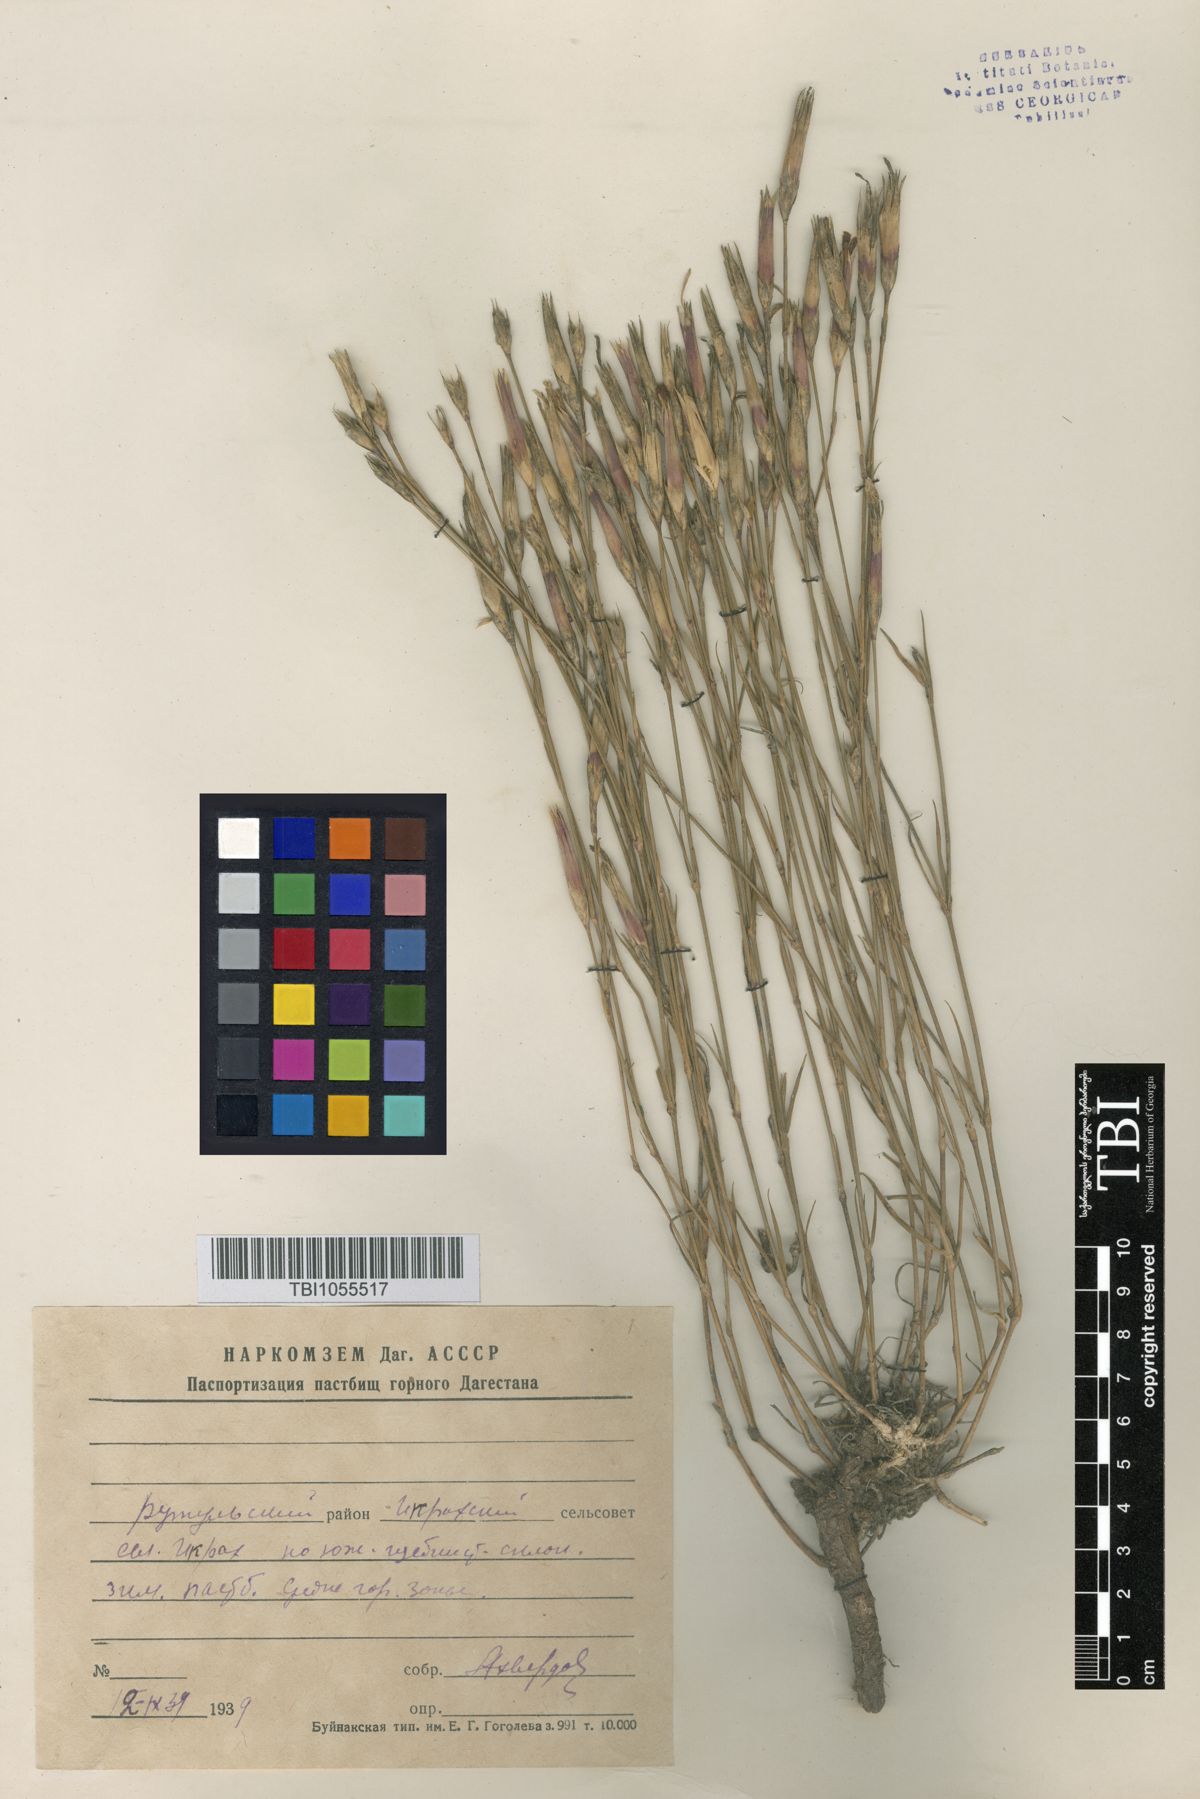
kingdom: Plantae
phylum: Tracheophyta
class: Magnoliopsida
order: Caryophyllales
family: Caryophyllaceae
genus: Dianthus
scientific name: Dianthus daghestanicus
